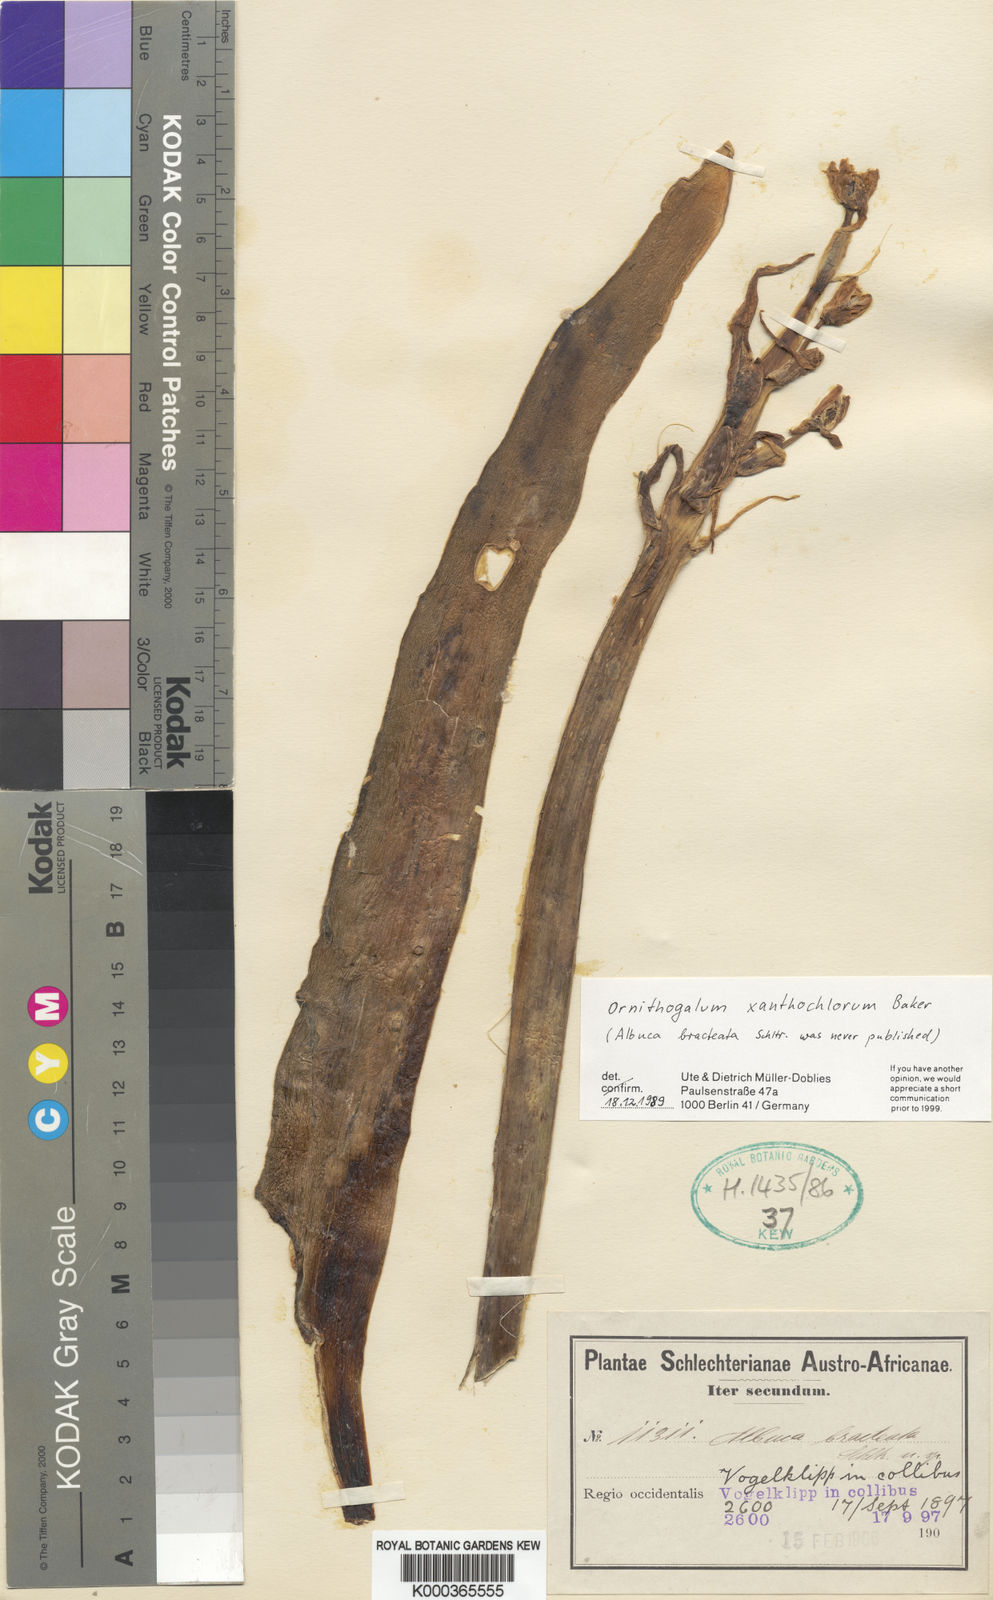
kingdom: Plantae
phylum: Tracheophyta
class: Liliopsida
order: Asparagales
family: Asparagaceae
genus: Ornithogalum
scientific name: Ornithogalum xanthochlorum
